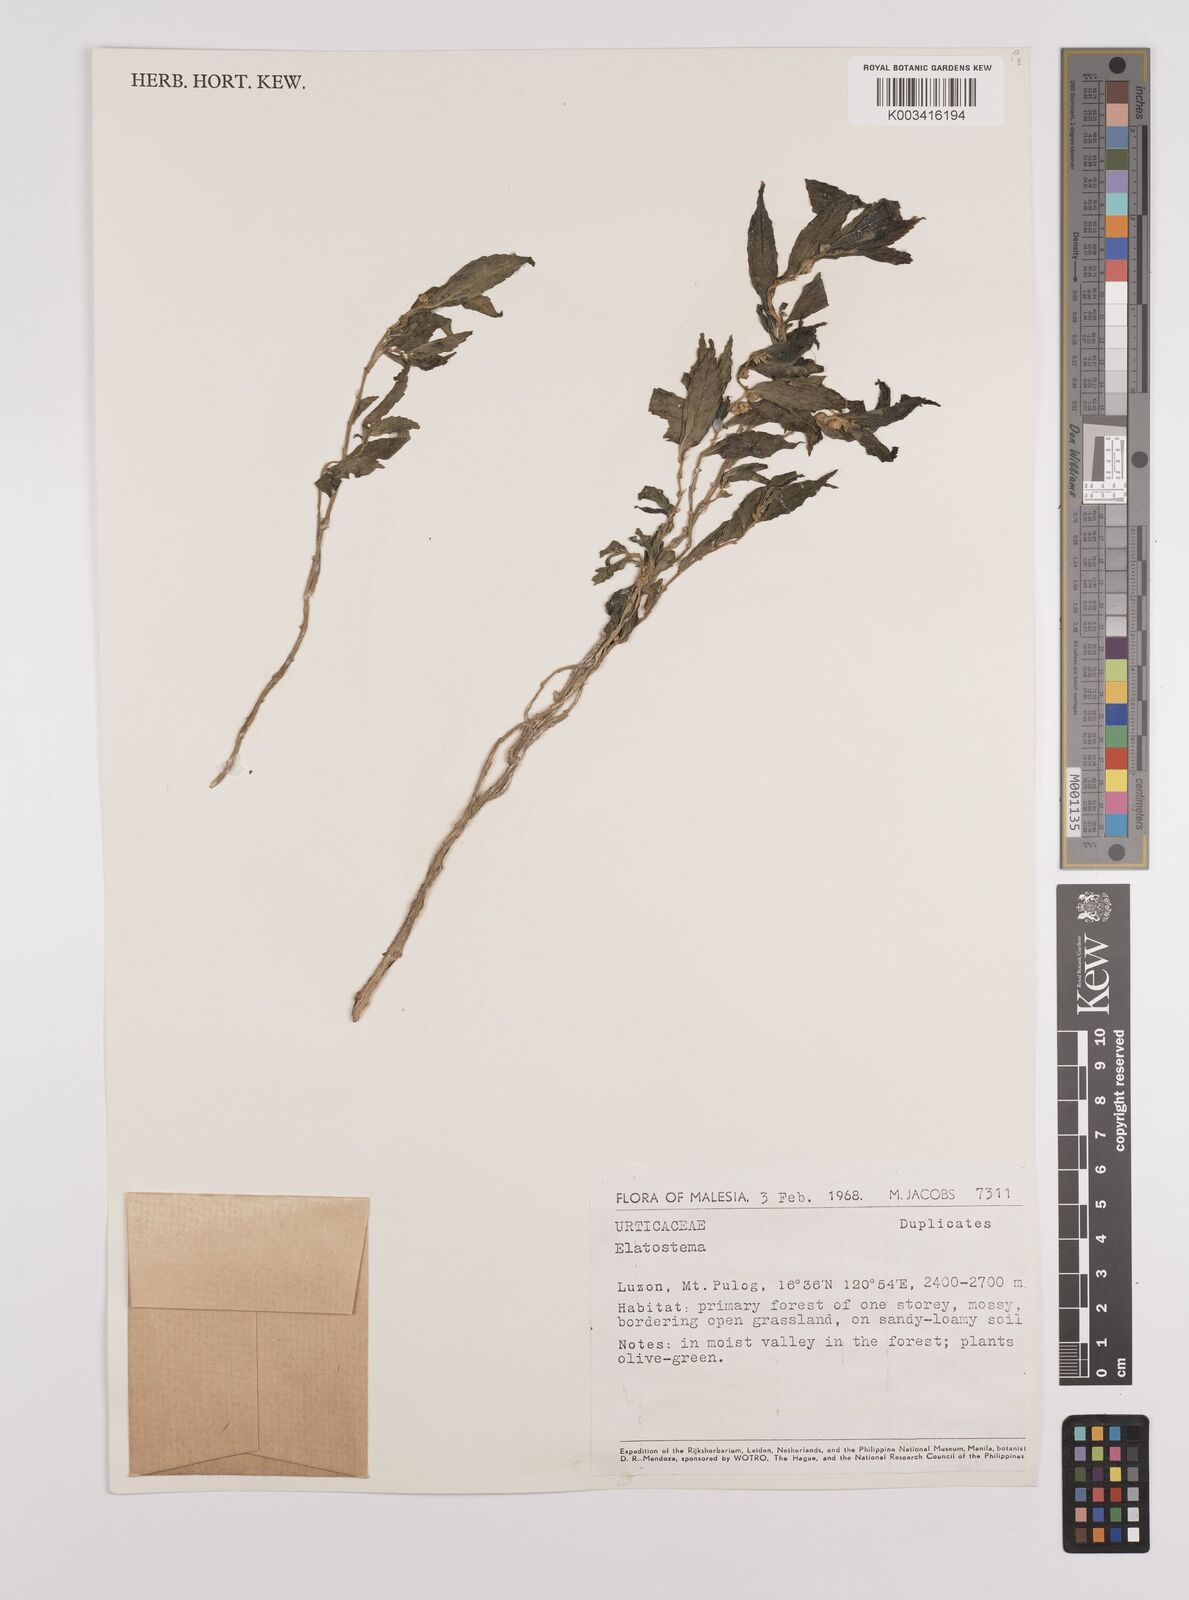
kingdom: Plantae
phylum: Tracheophyta
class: Magnoliopsida
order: Rosales
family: Urticaceae
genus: Elatostema
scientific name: Elatostema
